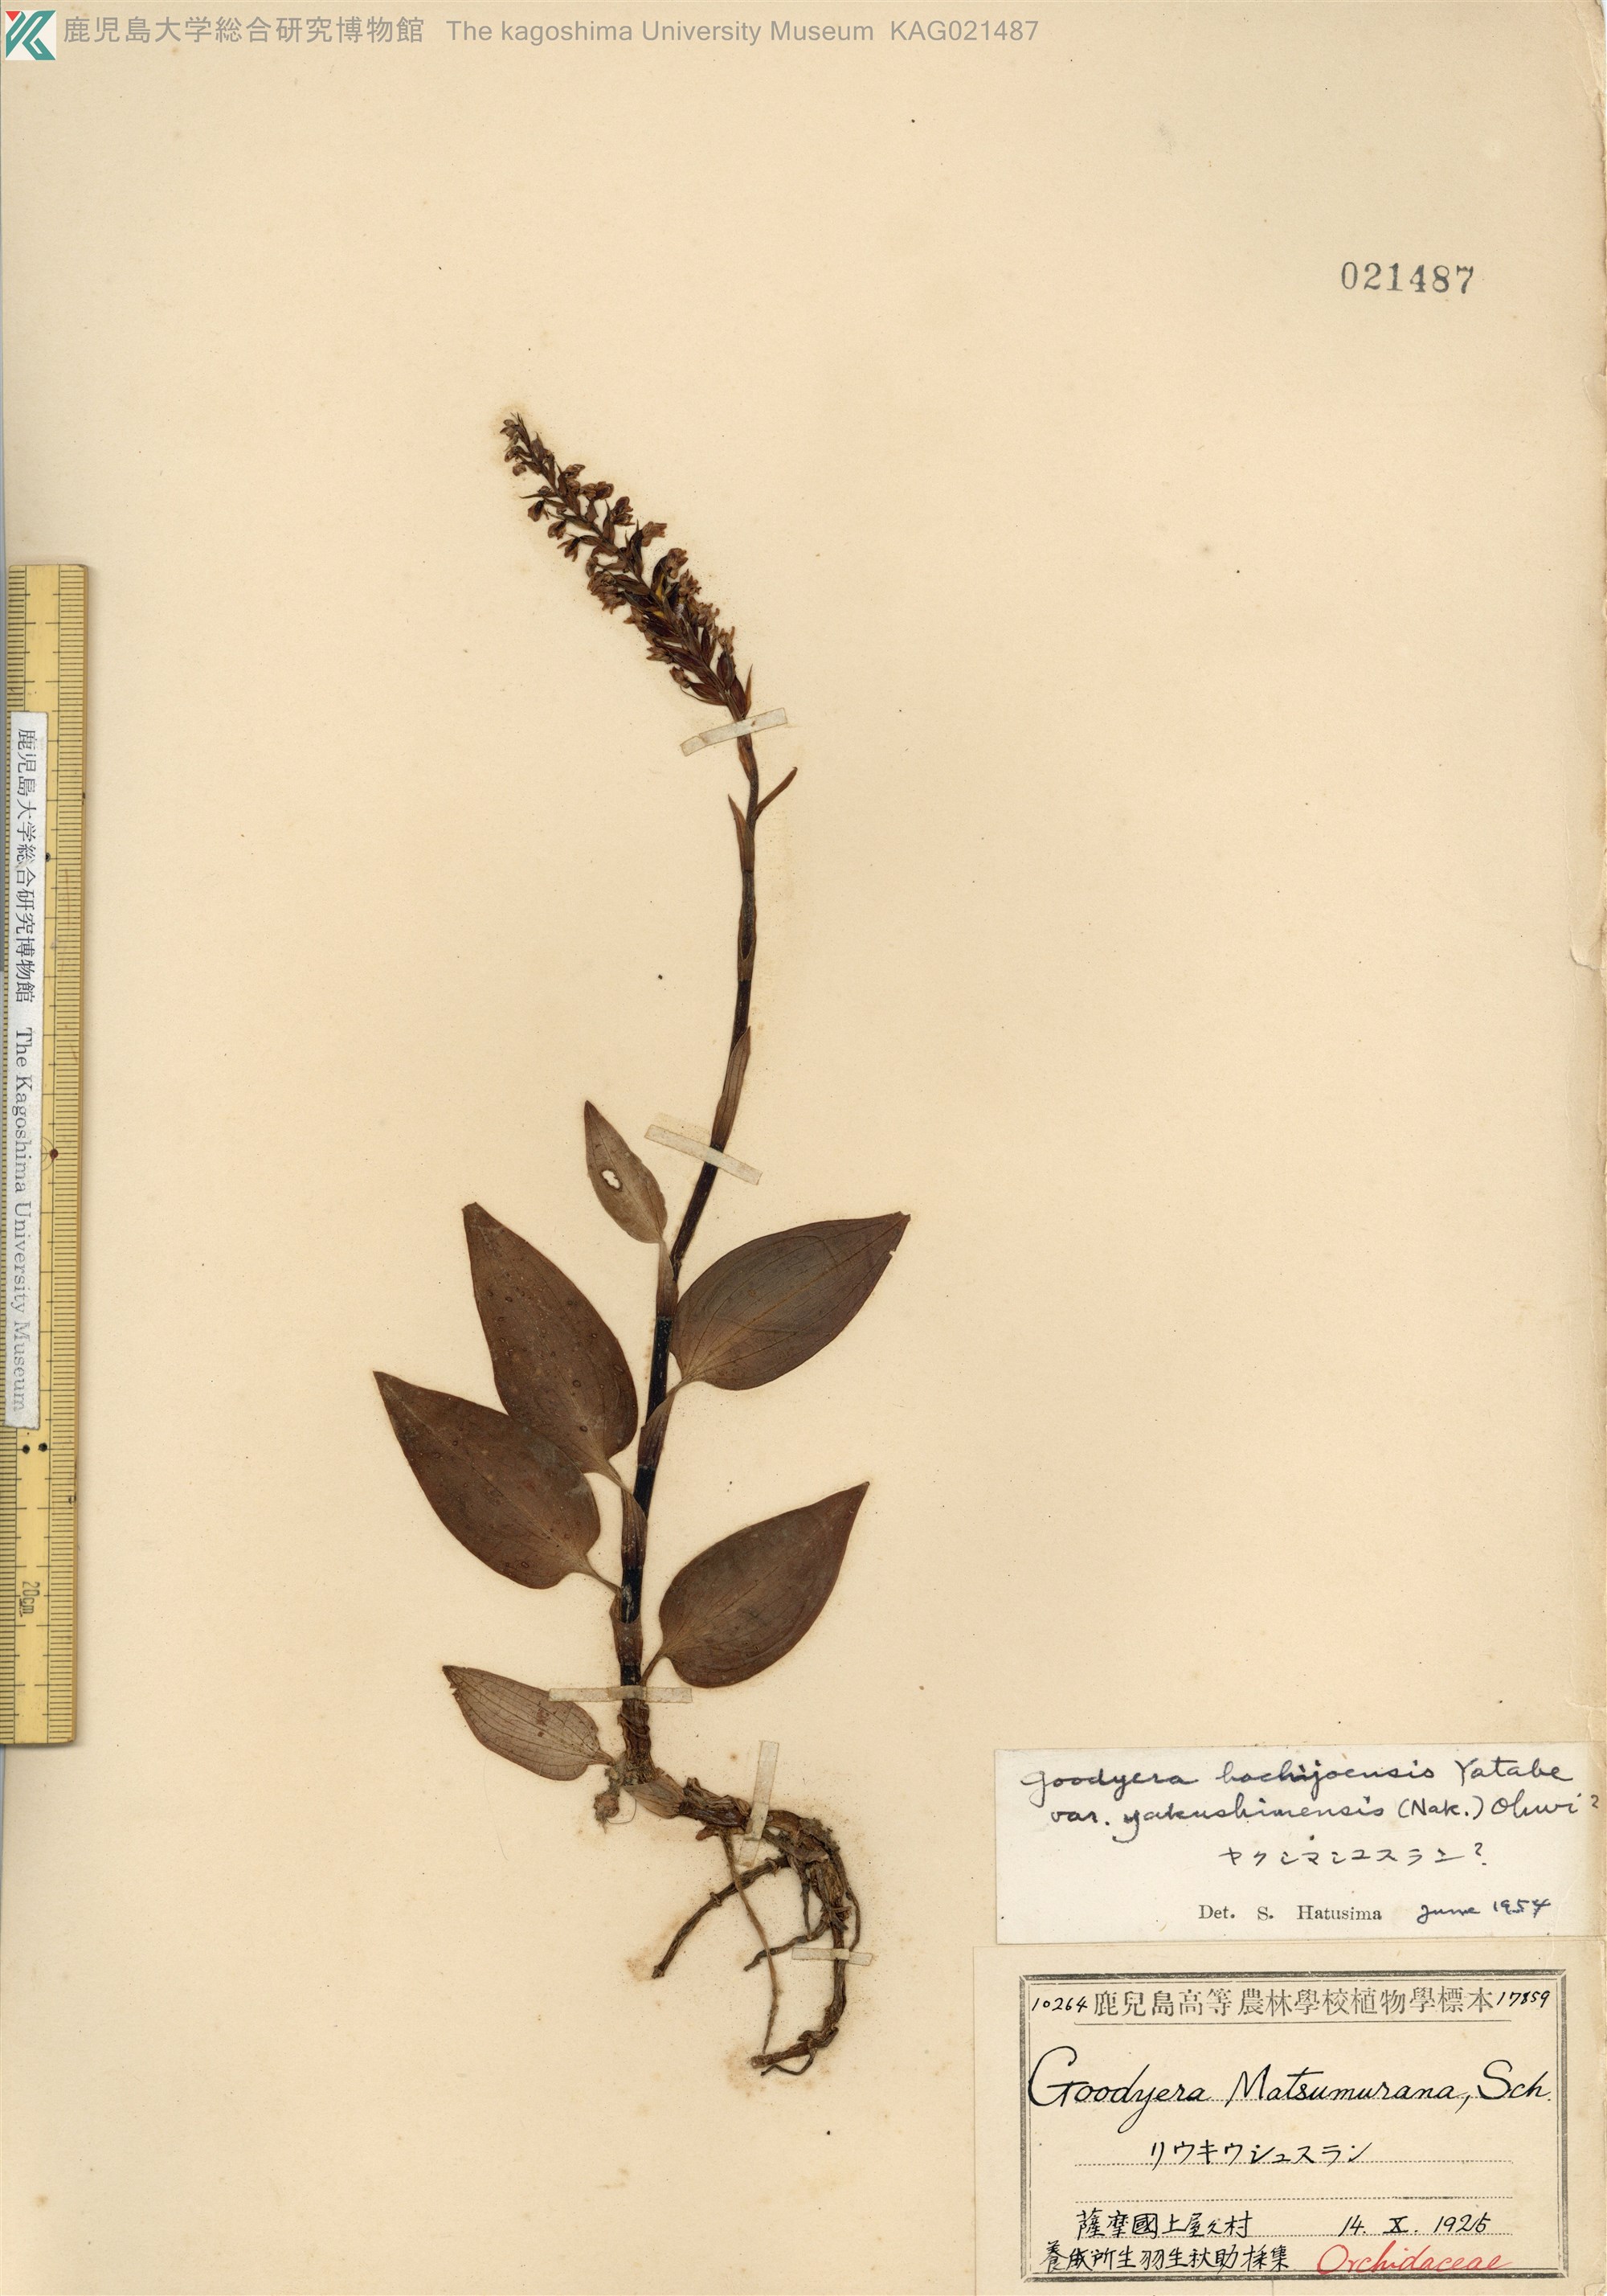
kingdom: Plantae
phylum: Tracheophyta
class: Liliopsida
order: Asparagales
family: Orchidaceae
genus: Goodyera
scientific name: Goodyera hachijoensis
